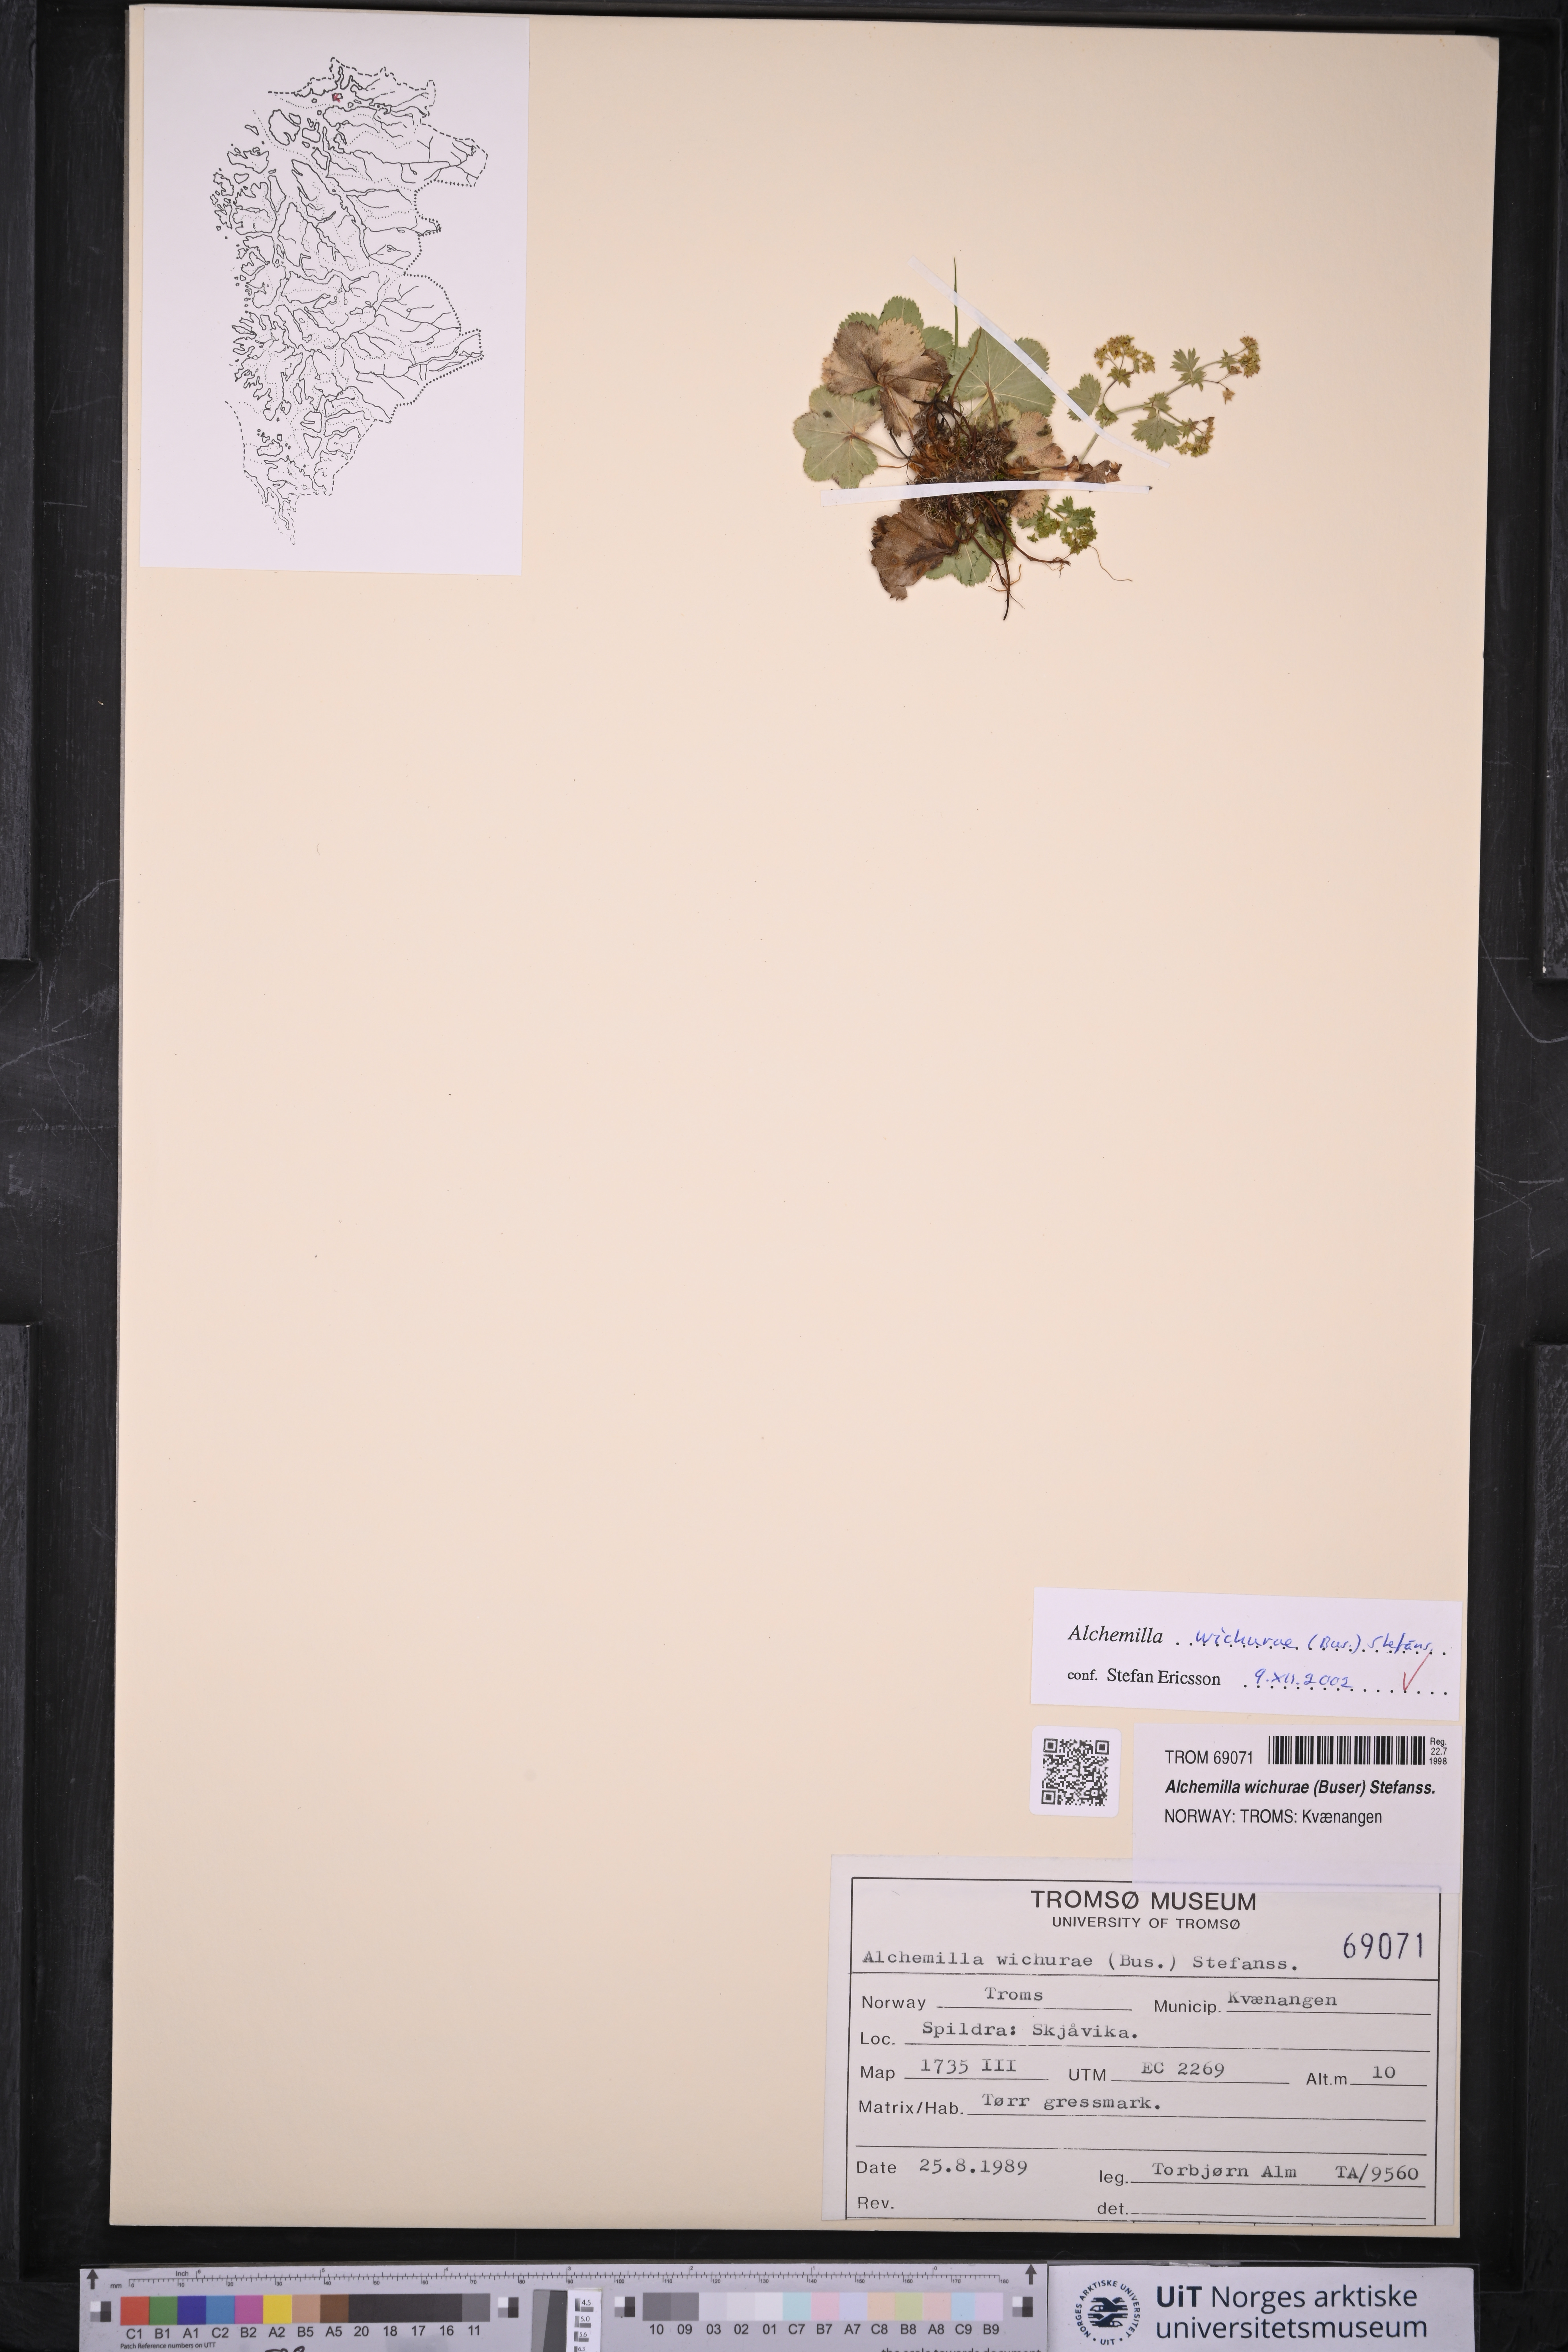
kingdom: Plantae
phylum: Tracheophyta
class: Magnoliopsida
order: Rosales
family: Rosaceae
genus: Alchemilla
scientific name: Alchemilla wichurae
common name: Rock lady's mantle
